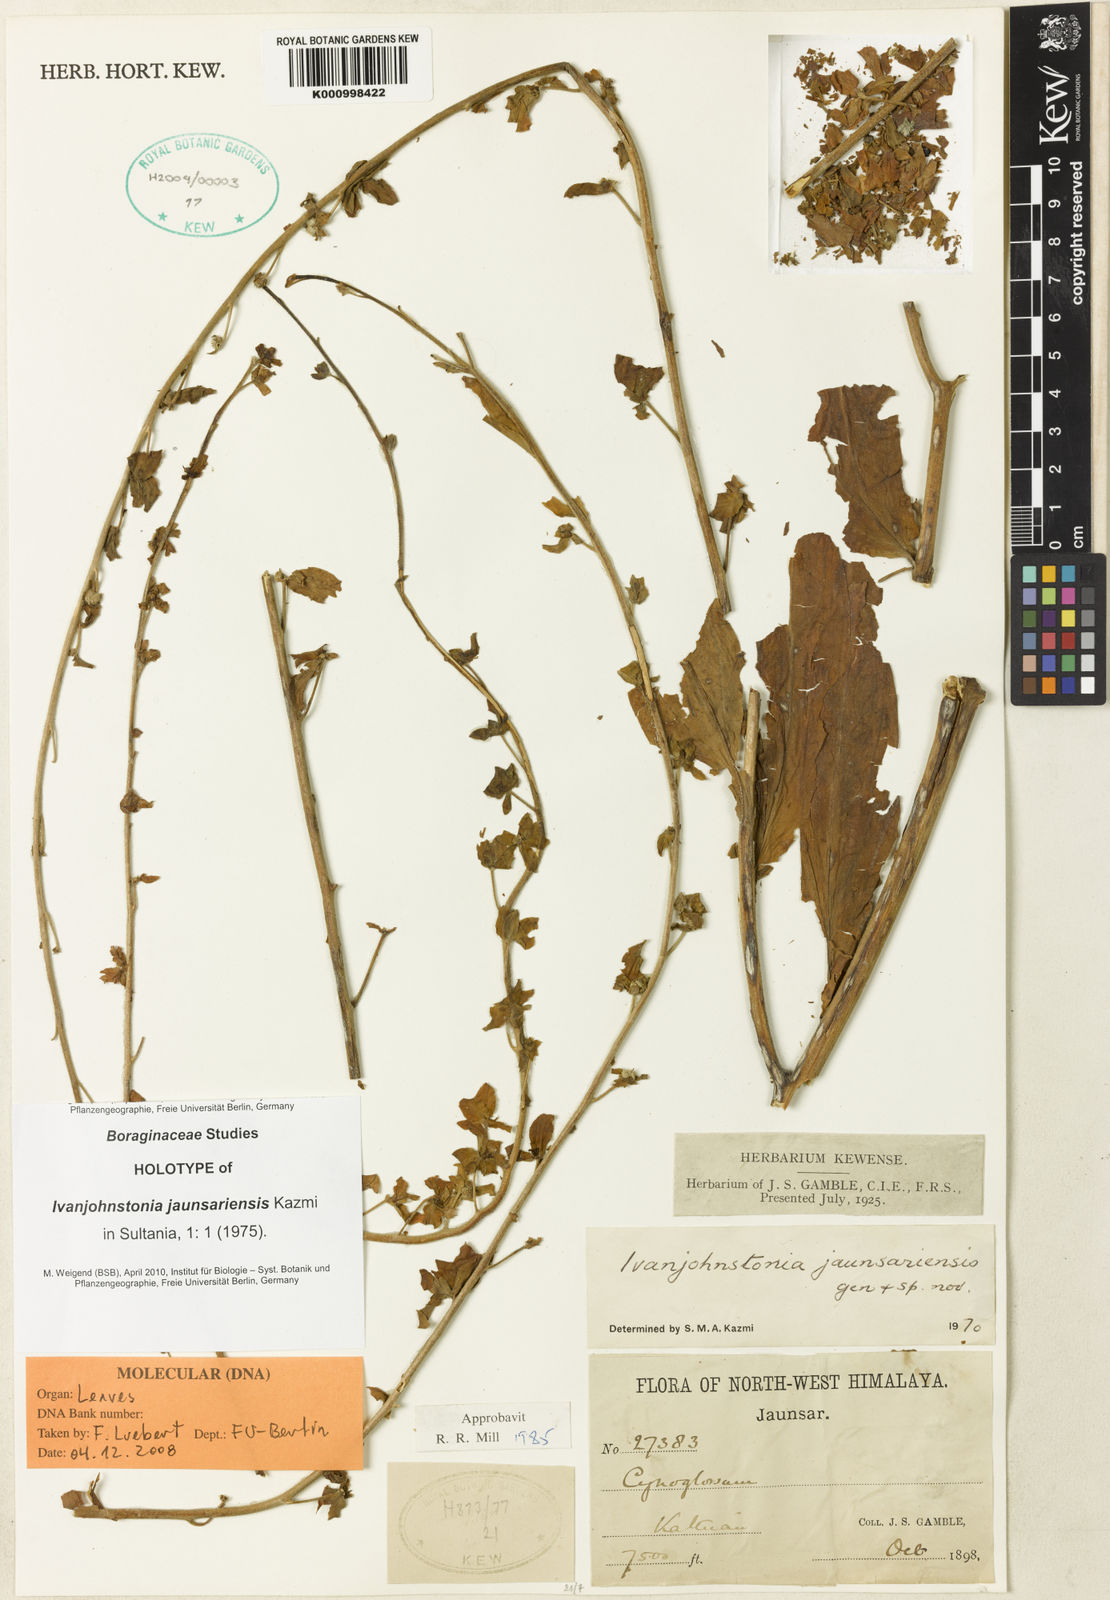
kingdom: Plantae
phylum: Tracheophyta
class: Magnoliopsida
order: Boraginales
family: Boraginaceae
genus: Ivanjohnstonia
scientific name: Ivanjohnstonia jaunsariensis
